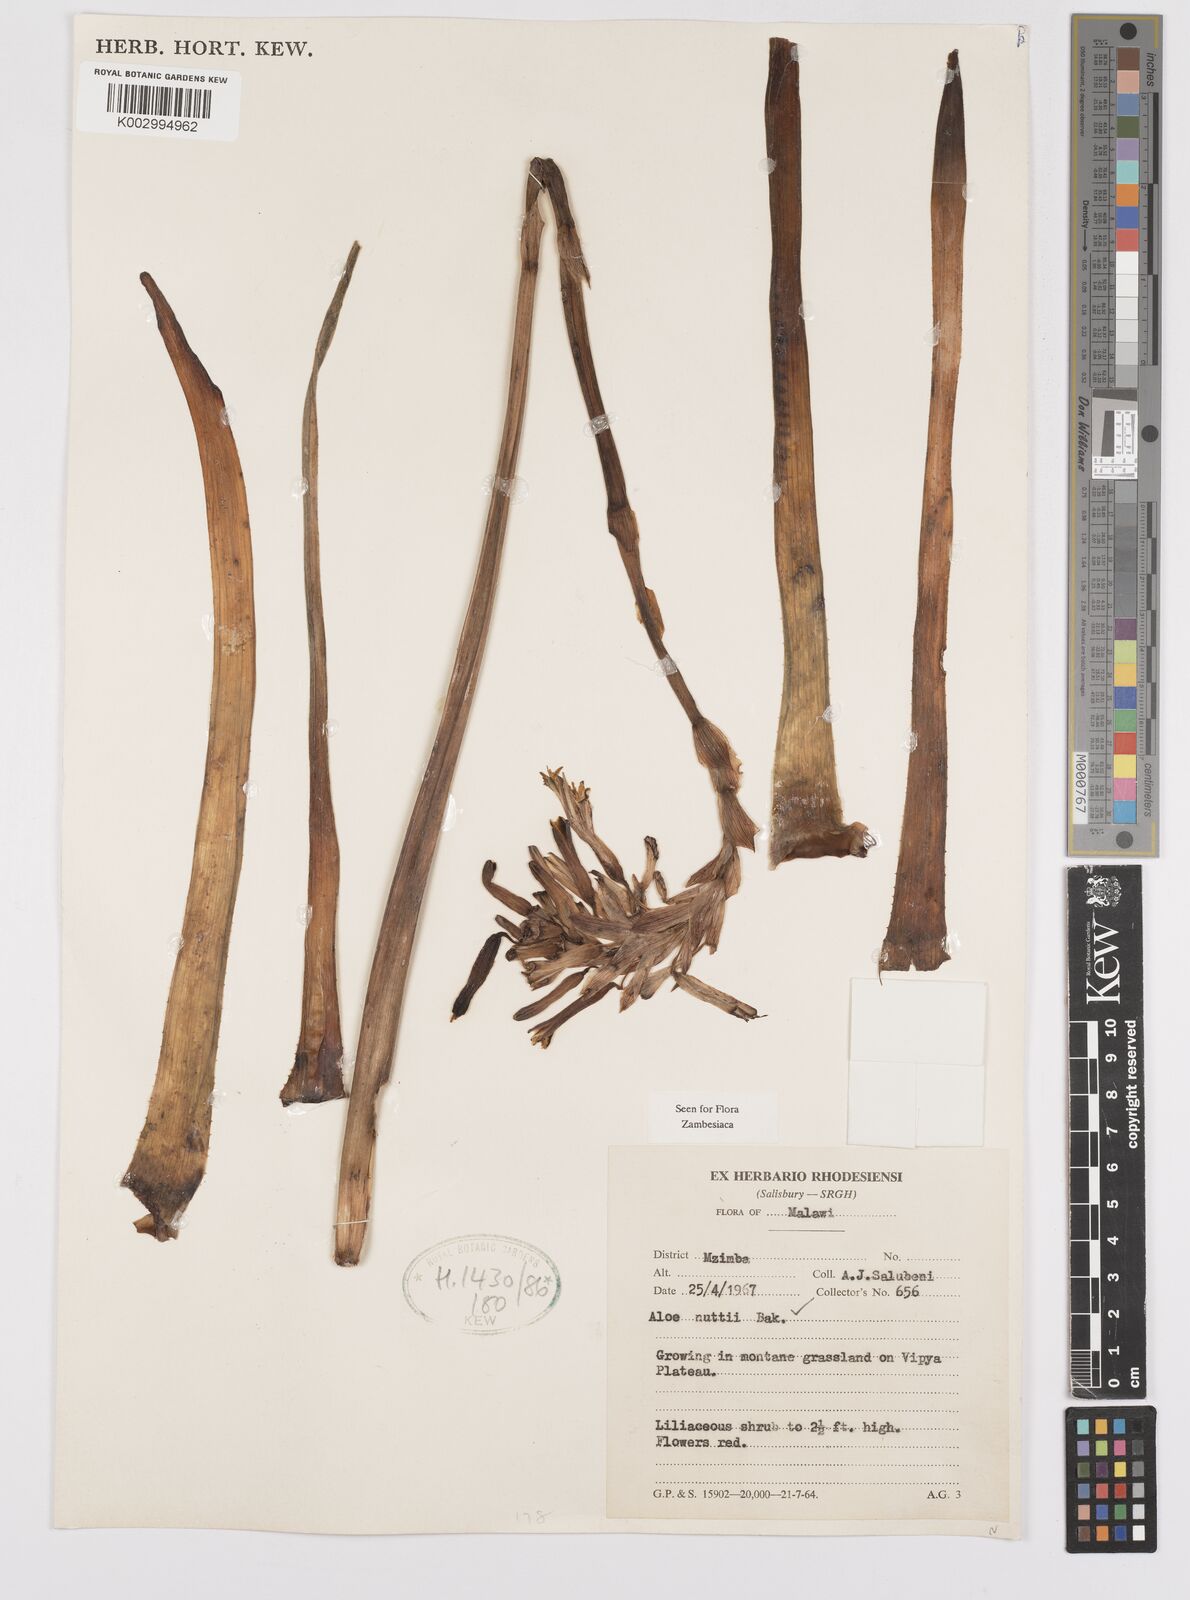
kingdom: Plantae
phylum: Tracheophyta
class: Liliopsida
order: Asparagales
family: Asphodelaceae
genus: Aloe
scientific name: Aloe nuttii
